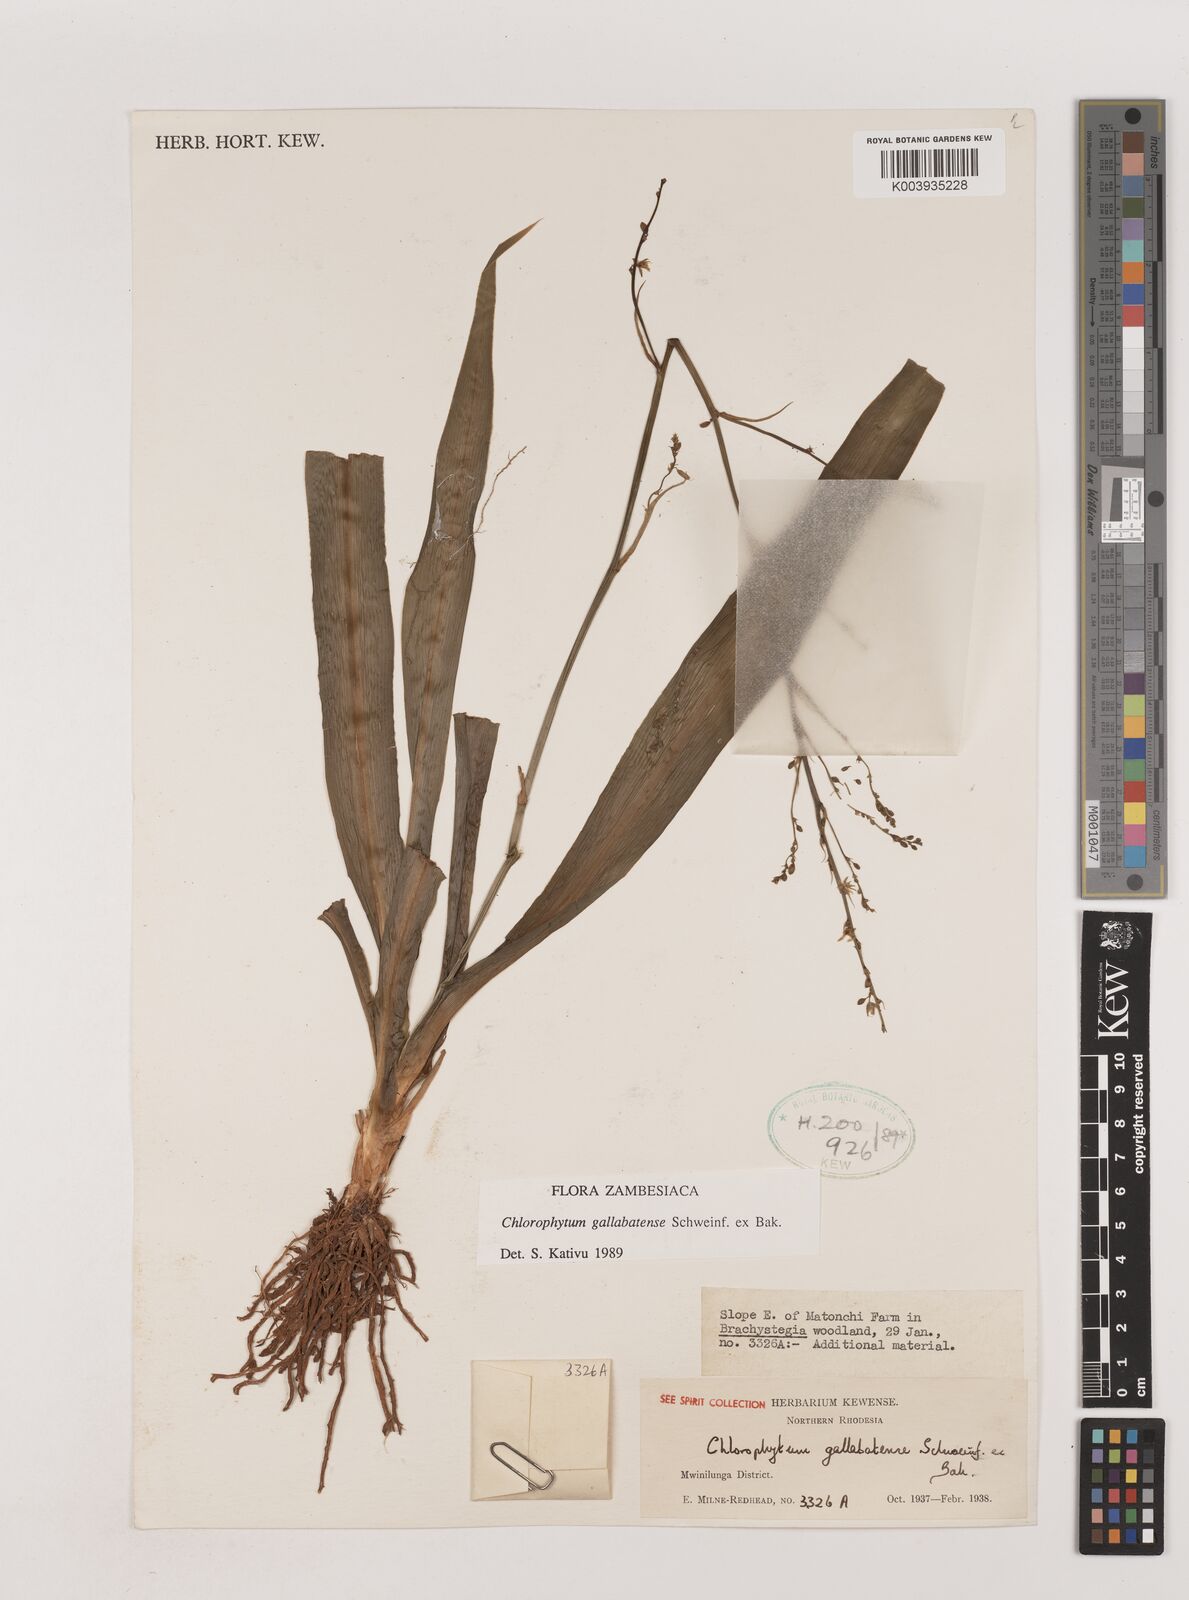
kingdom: Plantae
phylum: Tracheophyta
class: Liliopsida
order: Asparagales
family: Asparagaceae
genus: Chlorophytum
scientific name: Chlorophytum gallabatense
